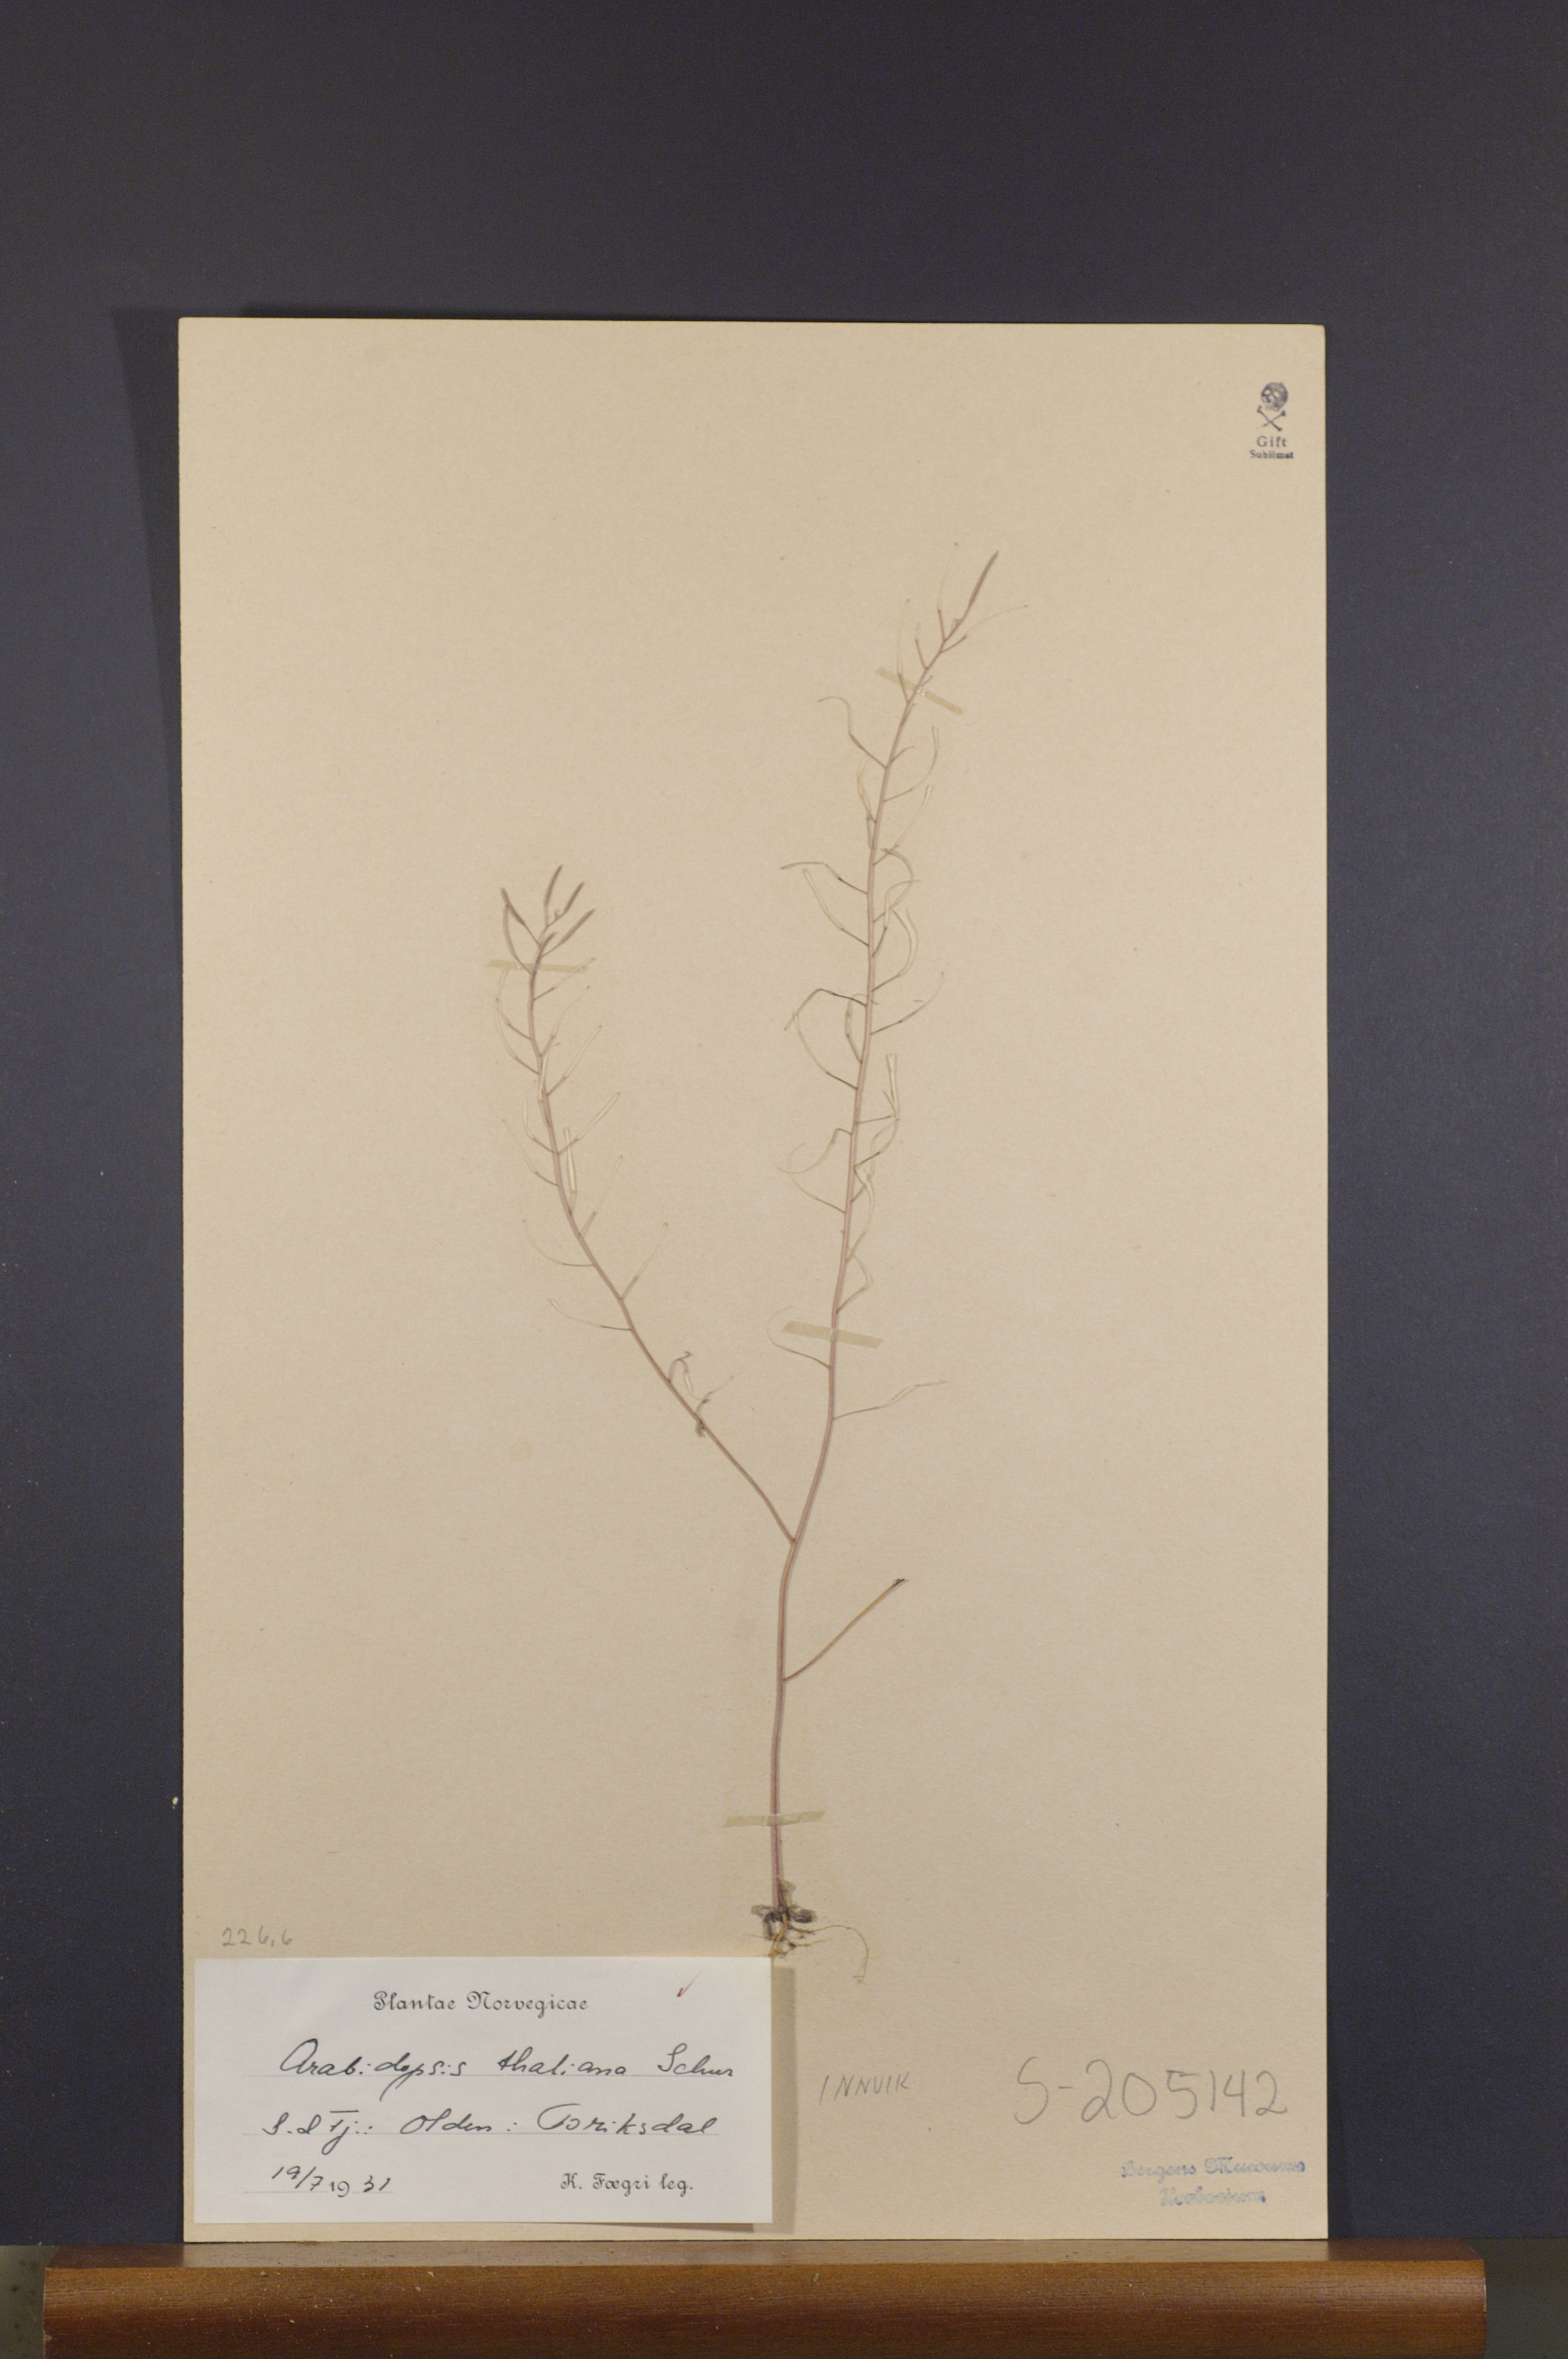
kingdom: Plantae
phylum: Tracheophyta
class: Magnoliopsida
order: Brassicales
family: Brassicaceae
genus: Arabidopsis
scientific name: Arabidopsis thaliana
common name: Thale cress
